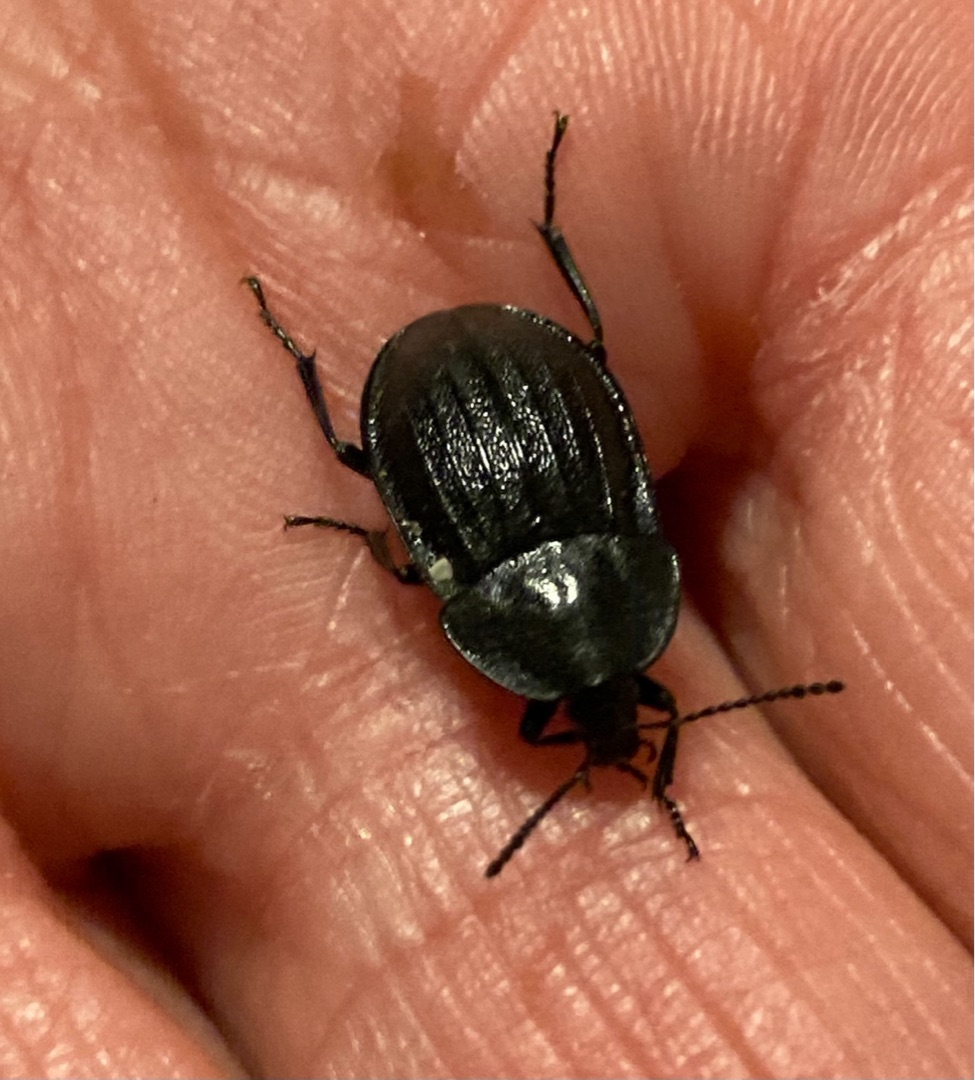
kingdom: Animalia
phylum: Arthropoda
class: Insecta
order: Coleoptera
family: Staphylinidae
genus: Silpha
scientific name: Silpha atrata
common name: Snegleådselbille
